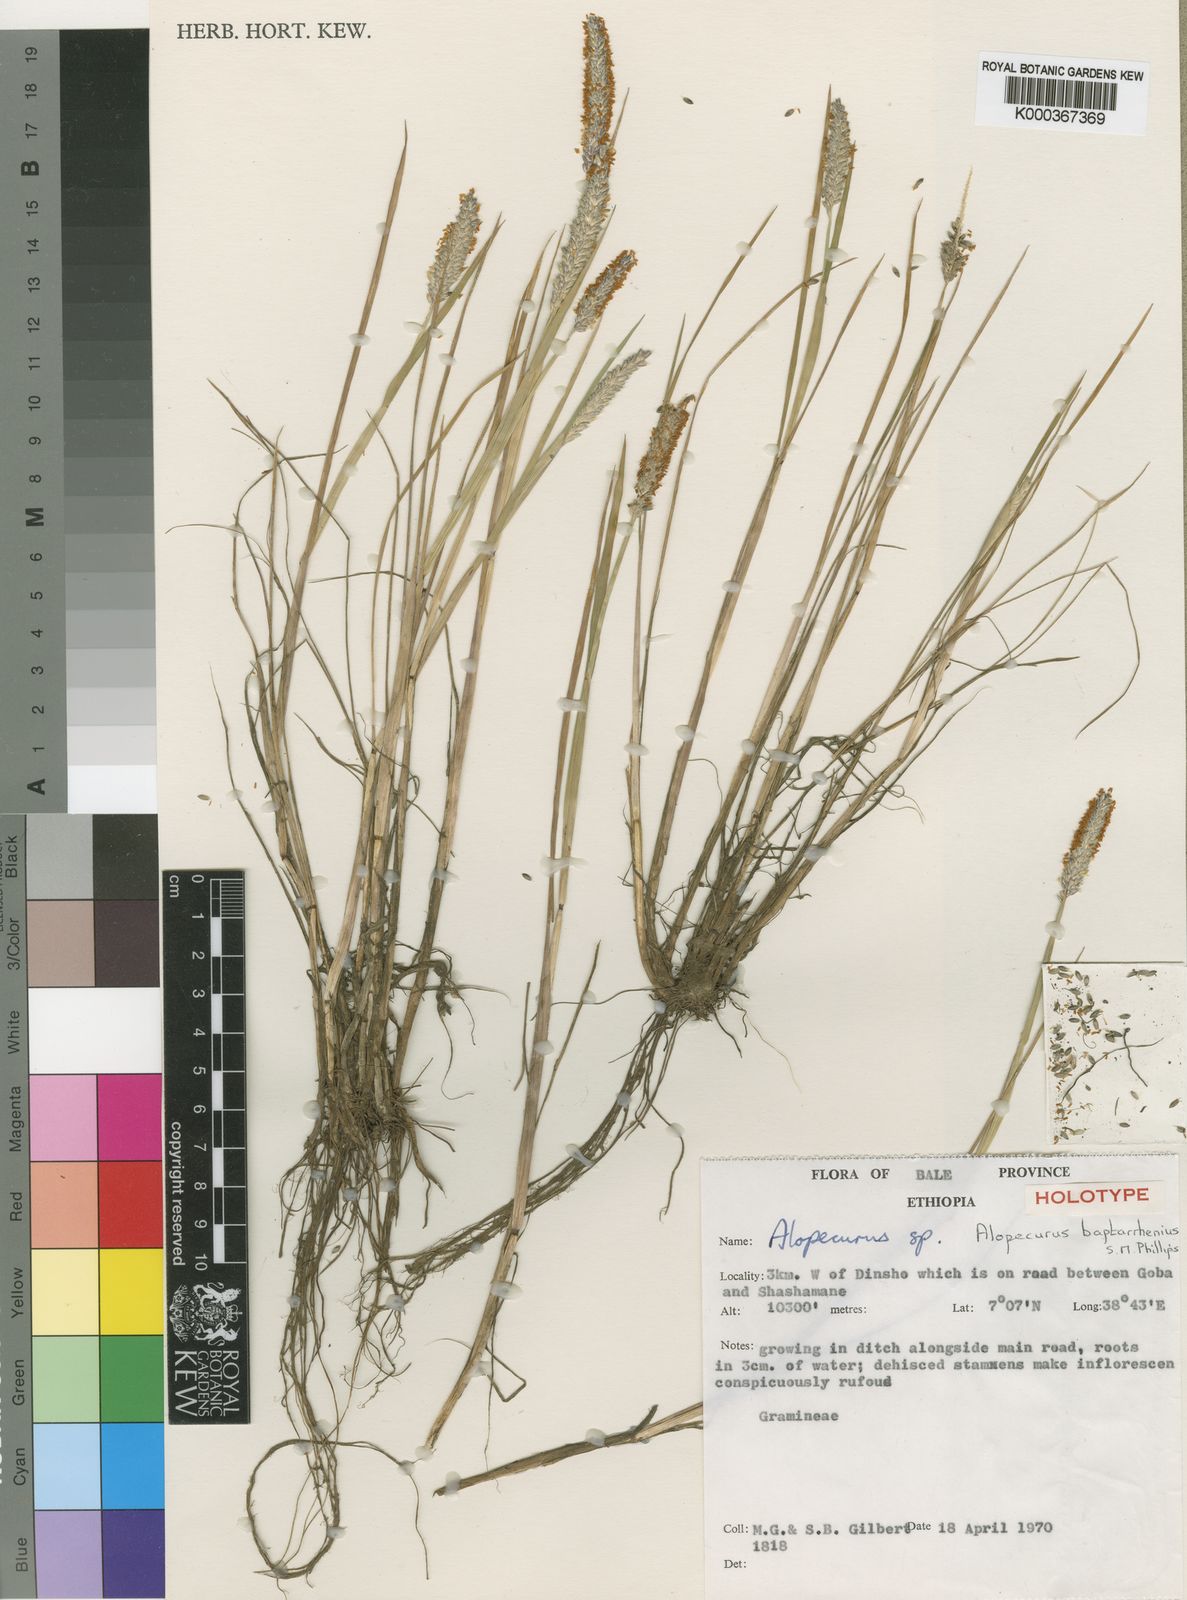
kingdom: Plantae
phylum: Tracheophyta
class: Liliopsida
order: Poales
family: Poaceae
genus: Alopecurus
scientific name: Alopecurus baptarrhenius
